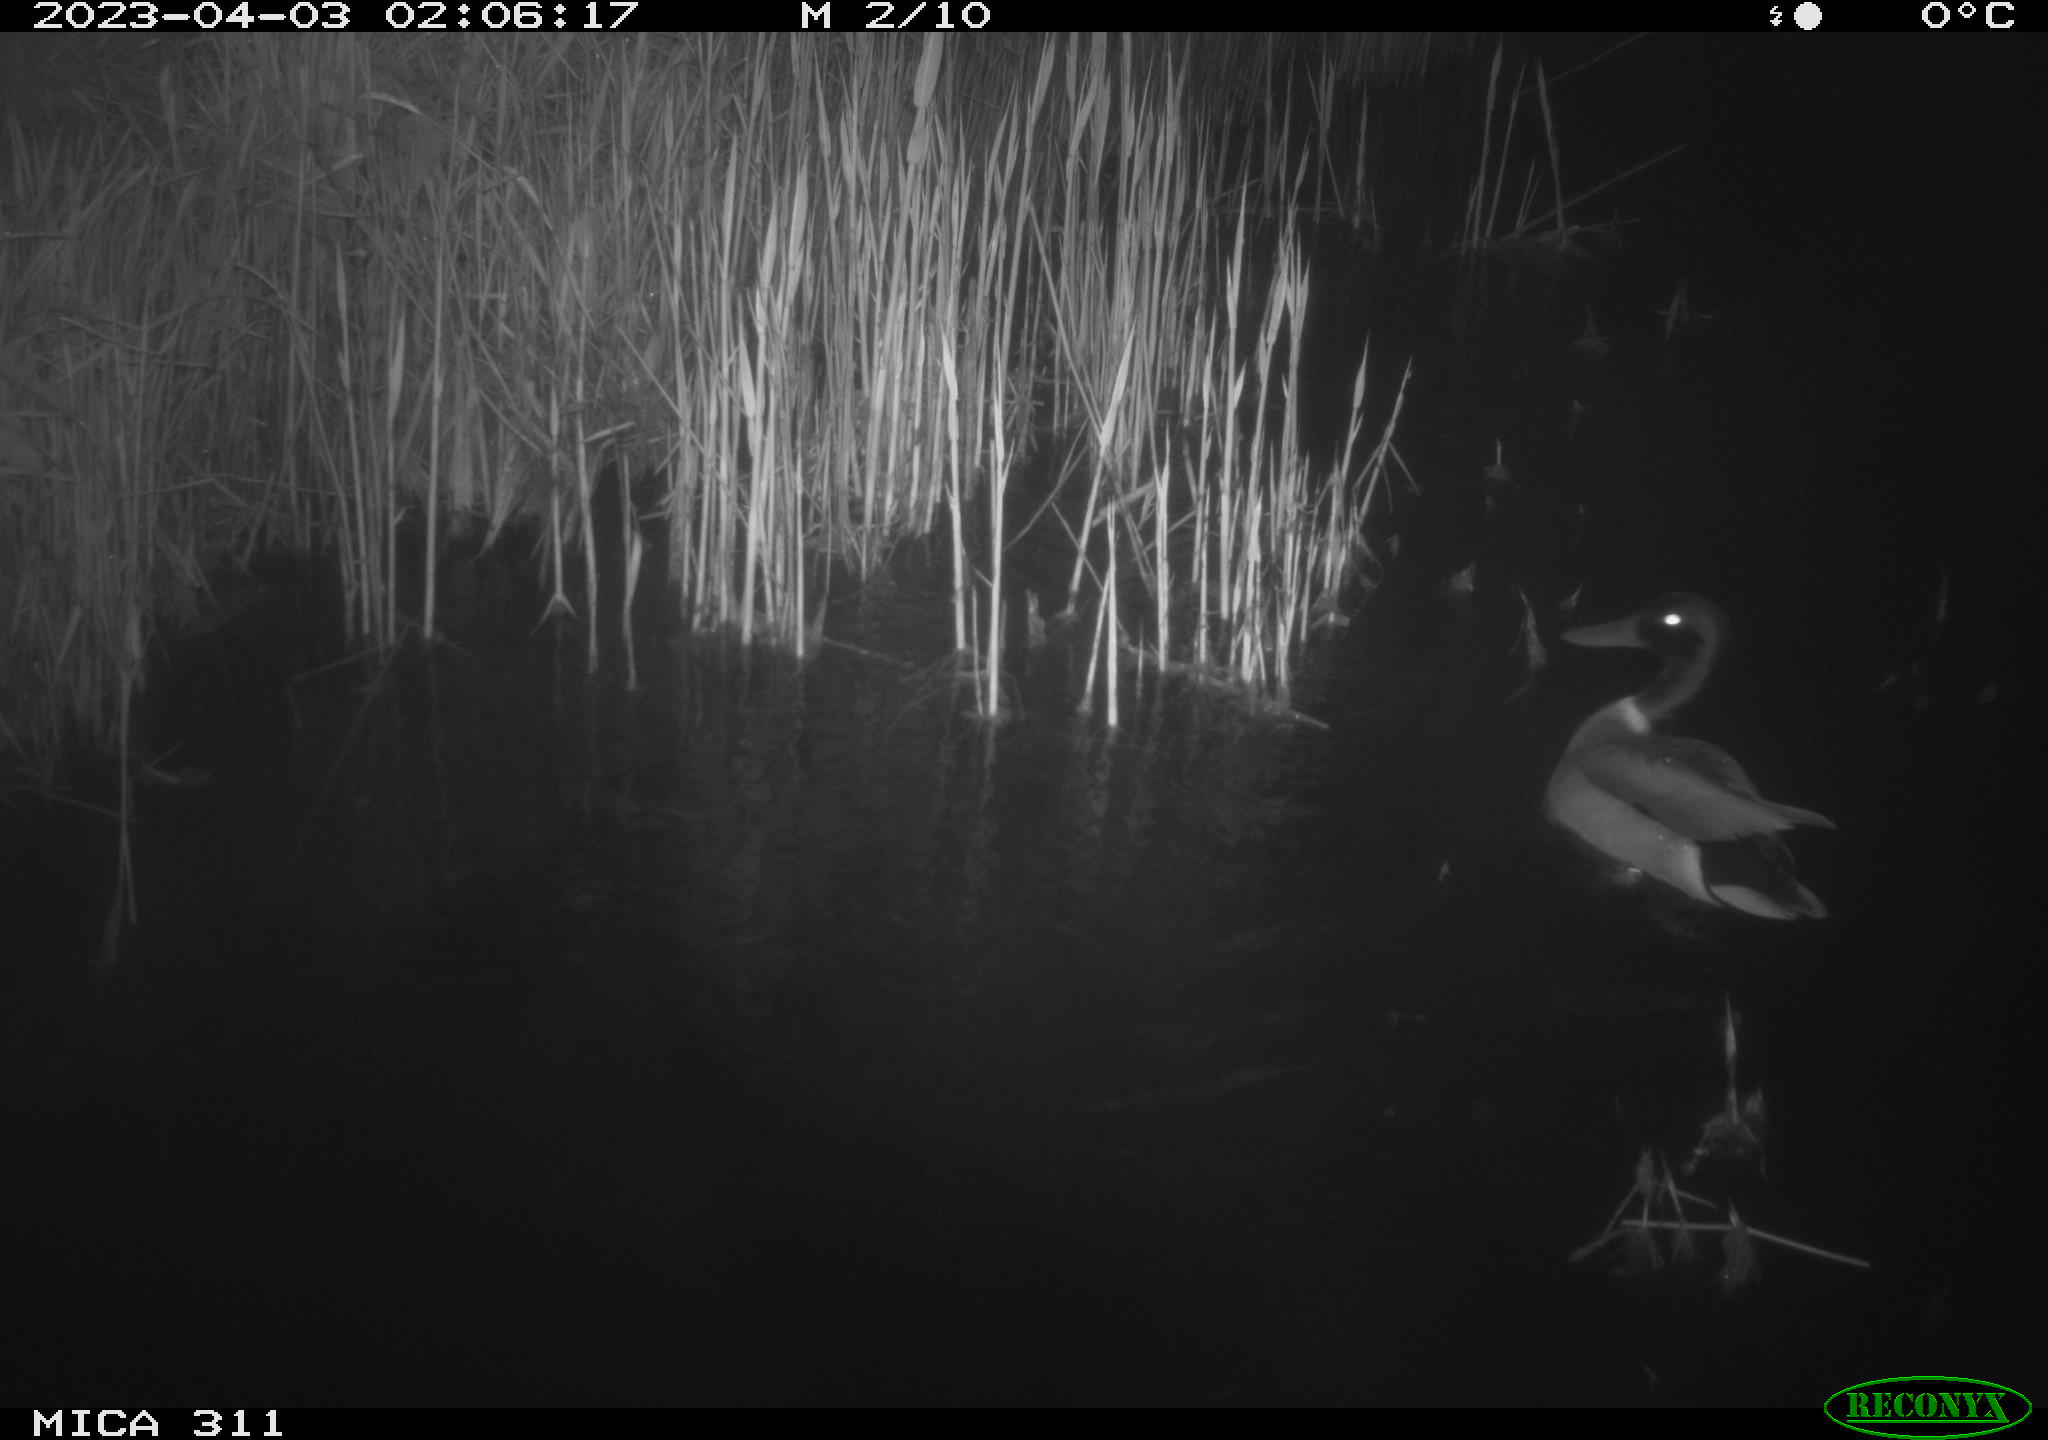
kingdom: Animalia
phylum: Chordata
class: Aves
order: Anseriformes
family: Anatidae
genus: Anas
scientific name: Anas
